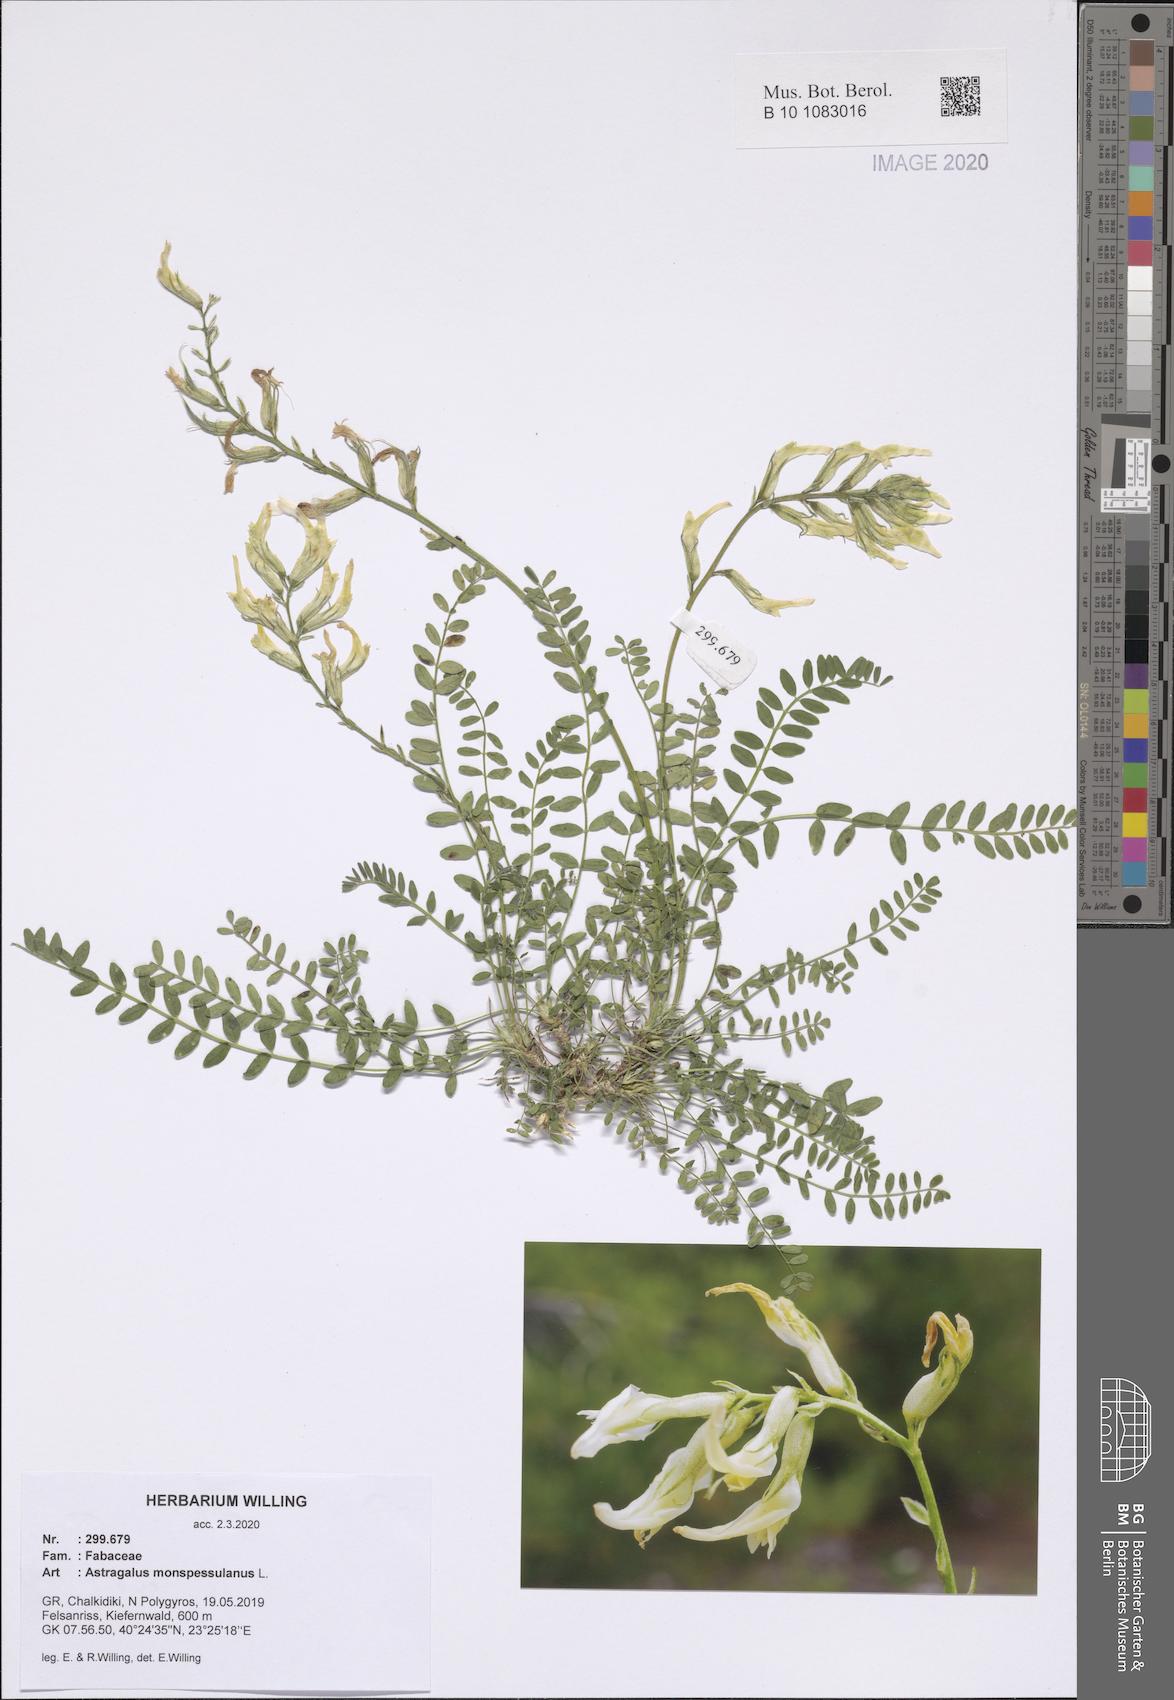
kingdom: Plantae
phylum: Tracheophyta
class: Magnoliopsida
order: Fabales
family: Fabaceae
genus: Astragalus
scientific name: Astragalus monspessulanus
